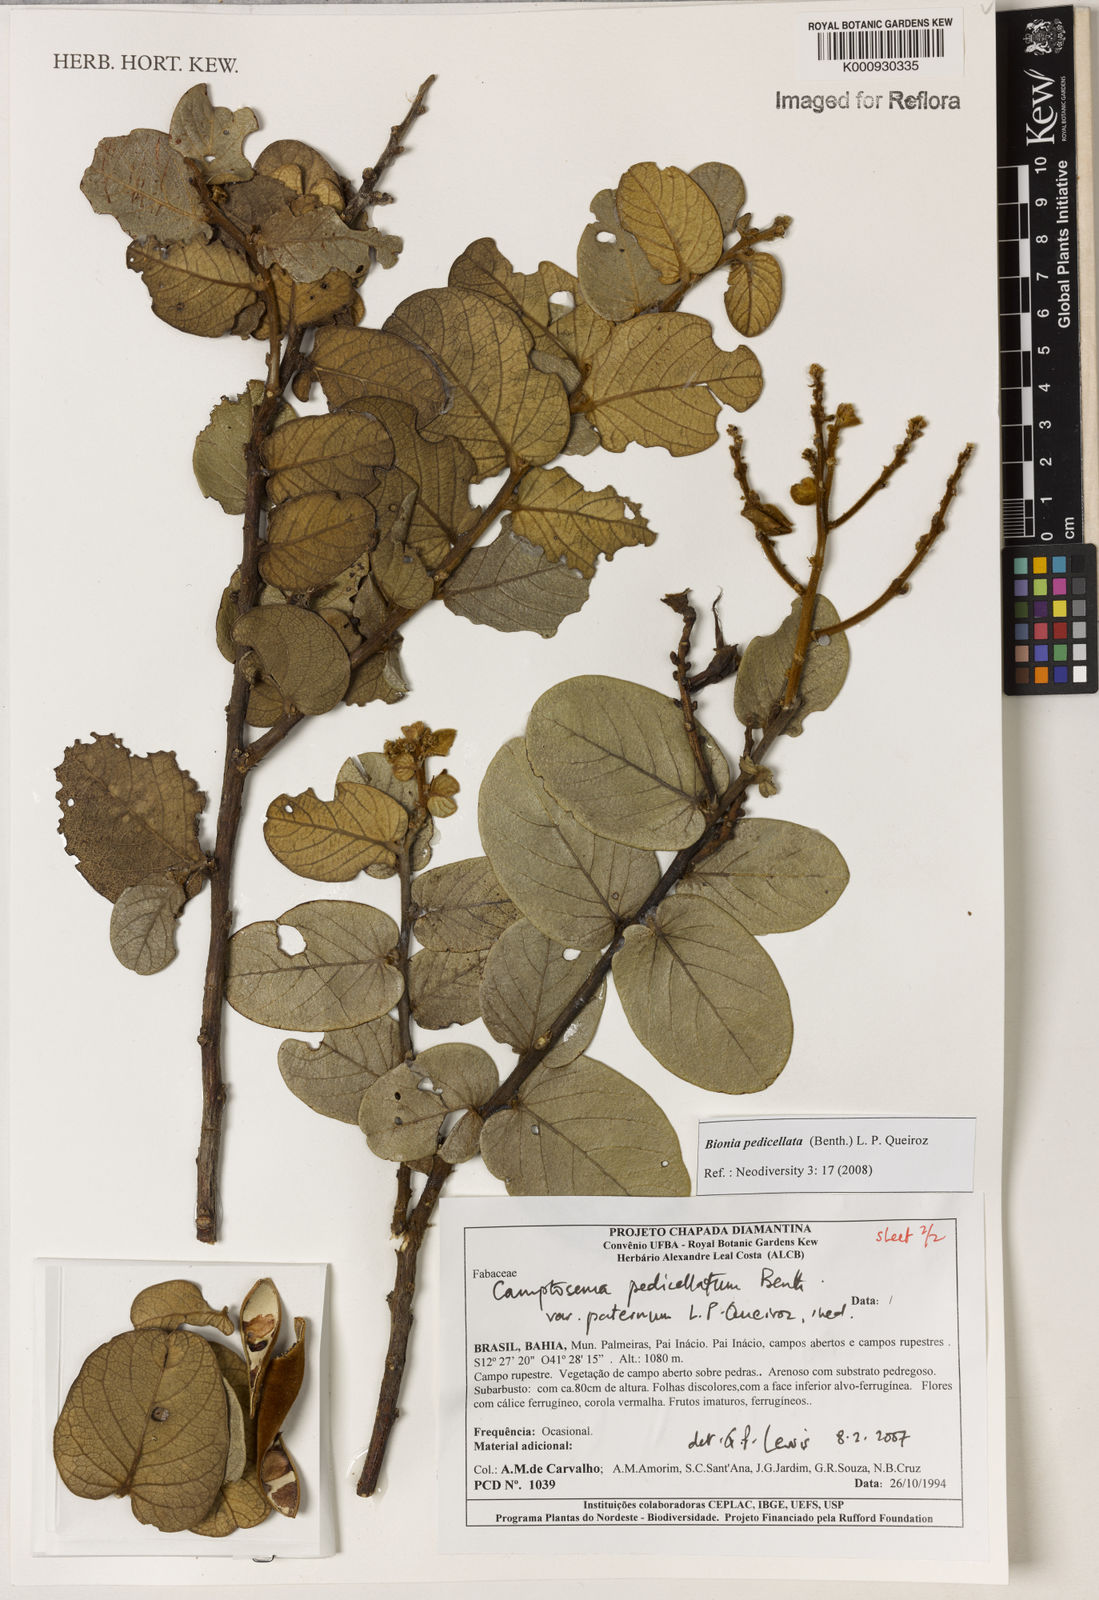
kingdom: Plantae
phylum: Tracheophyta
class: Magnoliopsida
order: Fabales
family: Fabaceae
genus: Camptosema
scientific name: Camptosema pedicellatum
